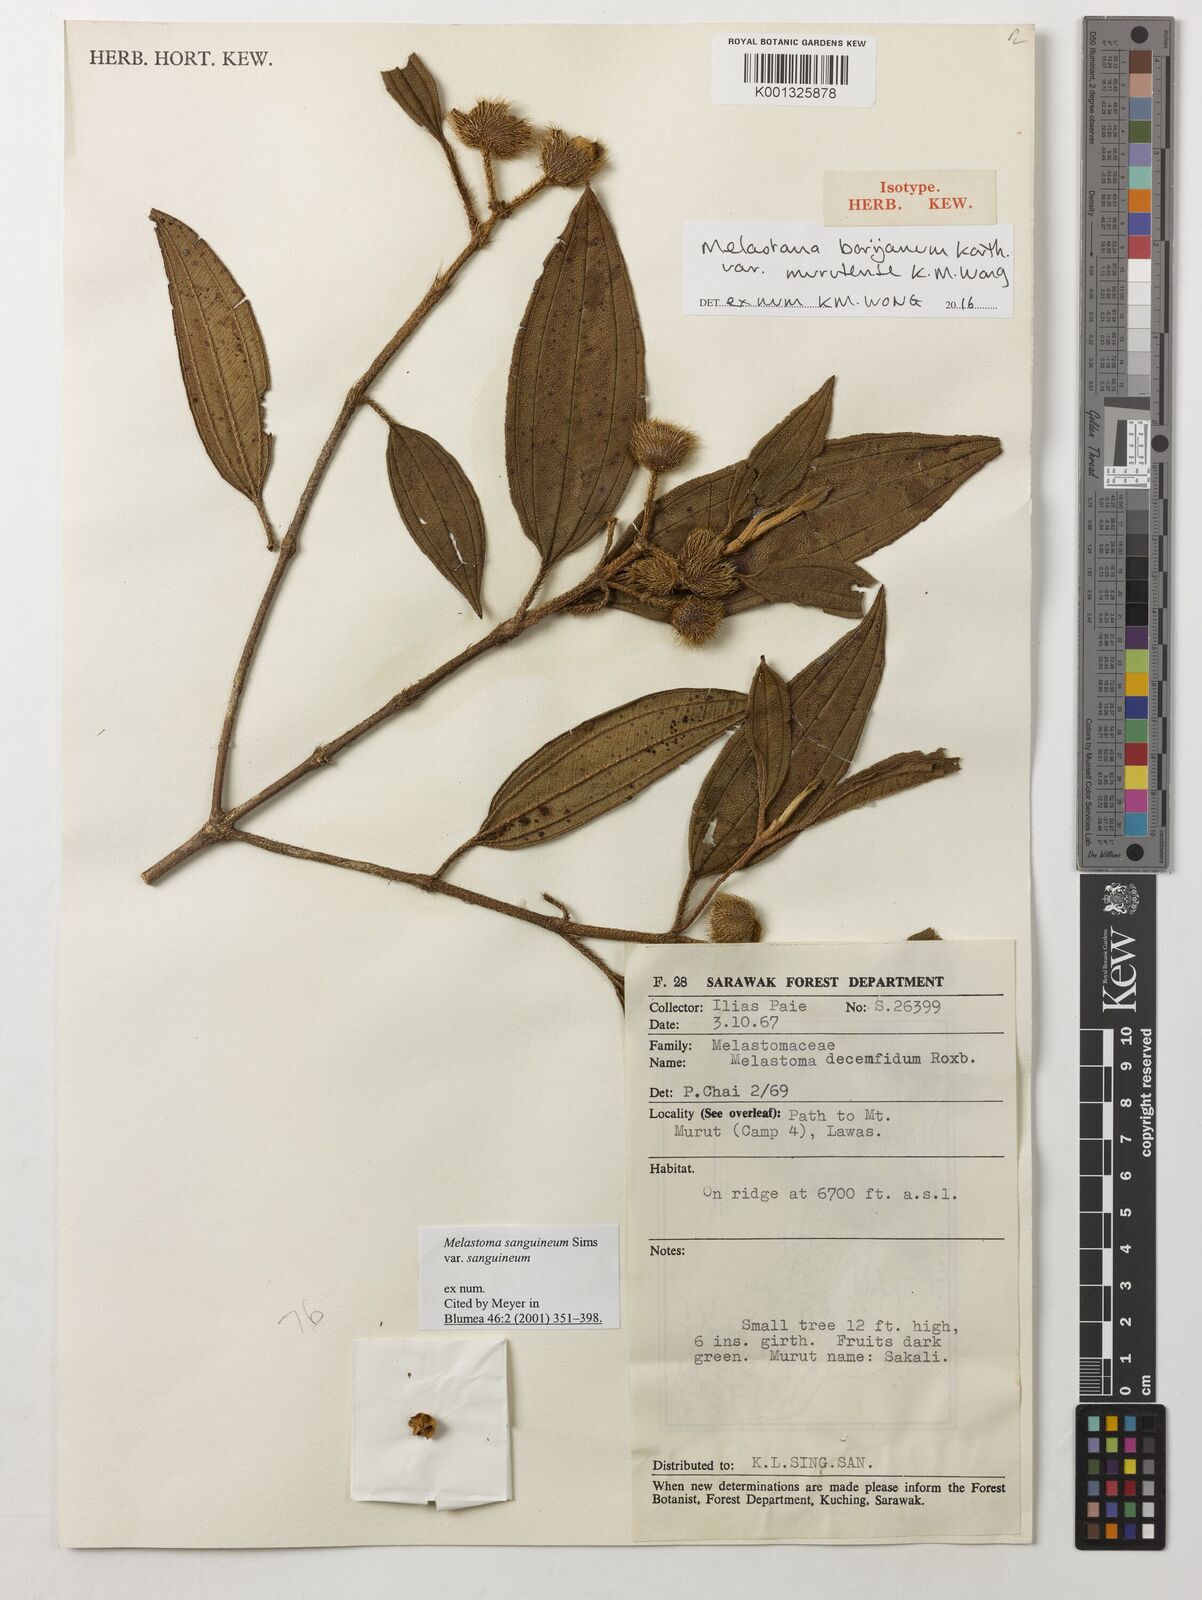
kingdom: Plantae
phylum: Tracheophyta
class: Magnoliopsida
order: Myrtales
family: Melastomataceae
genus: Melastoma
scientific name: Melastoma borijanum
